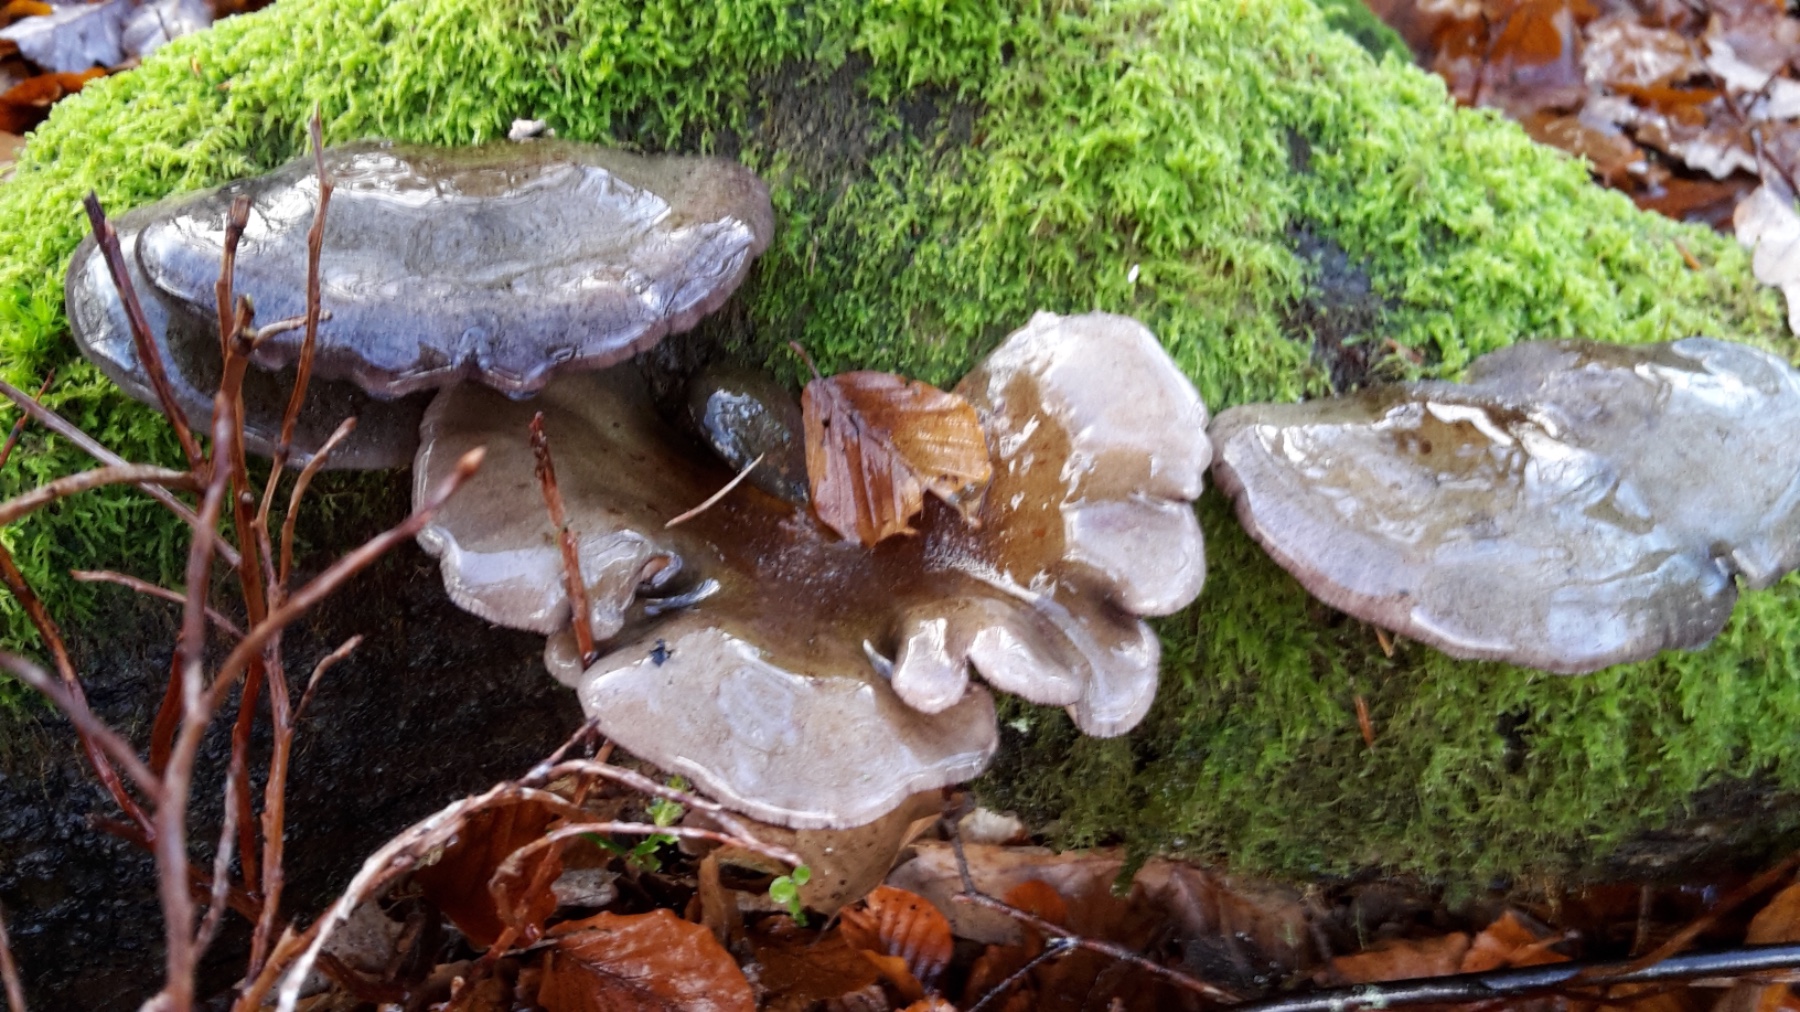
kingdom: Fungi
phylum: Basidiomycota
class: Agaricomycetes
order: Agaricales
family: Sarcomyxaceae
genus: Sarcomyxa
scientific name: Sarcomyxa serotina
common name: gummihat
